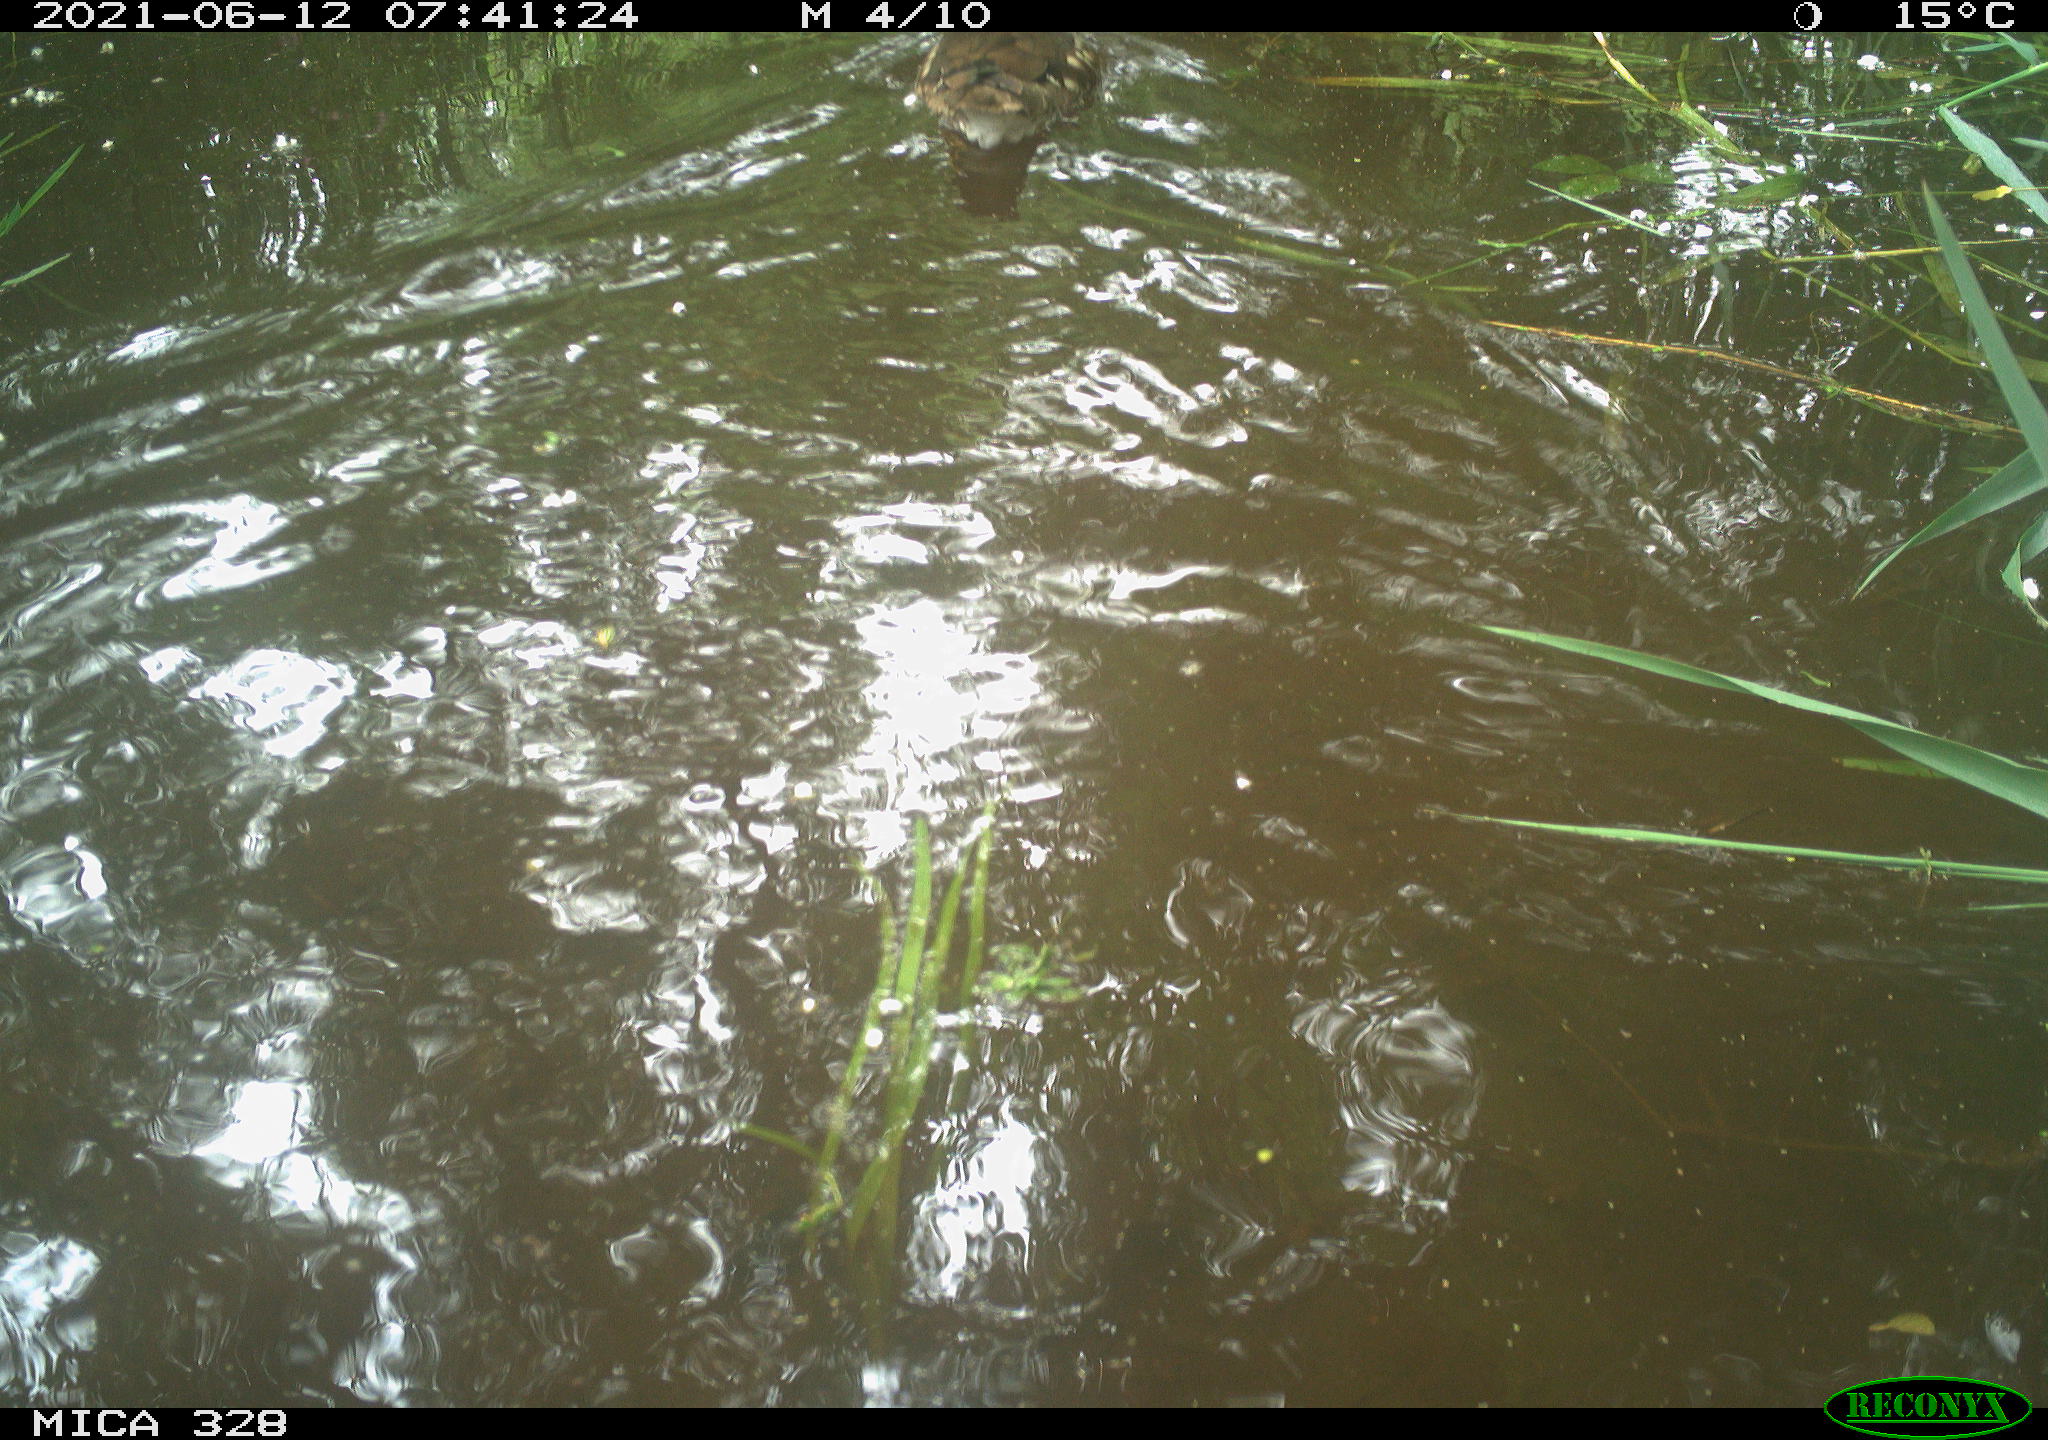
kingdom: Animalia
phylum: Chordata
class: Aves
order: Anseriformes
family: Anatidae
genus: Aix
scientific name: Aix galericulata
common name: Mandarin duck
